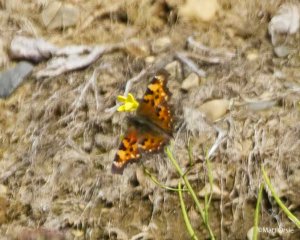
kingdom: Animalia
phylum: Arthropoda
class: Insecta
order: Lepidoptera
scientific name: Lepidoptera
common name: Butterflies
